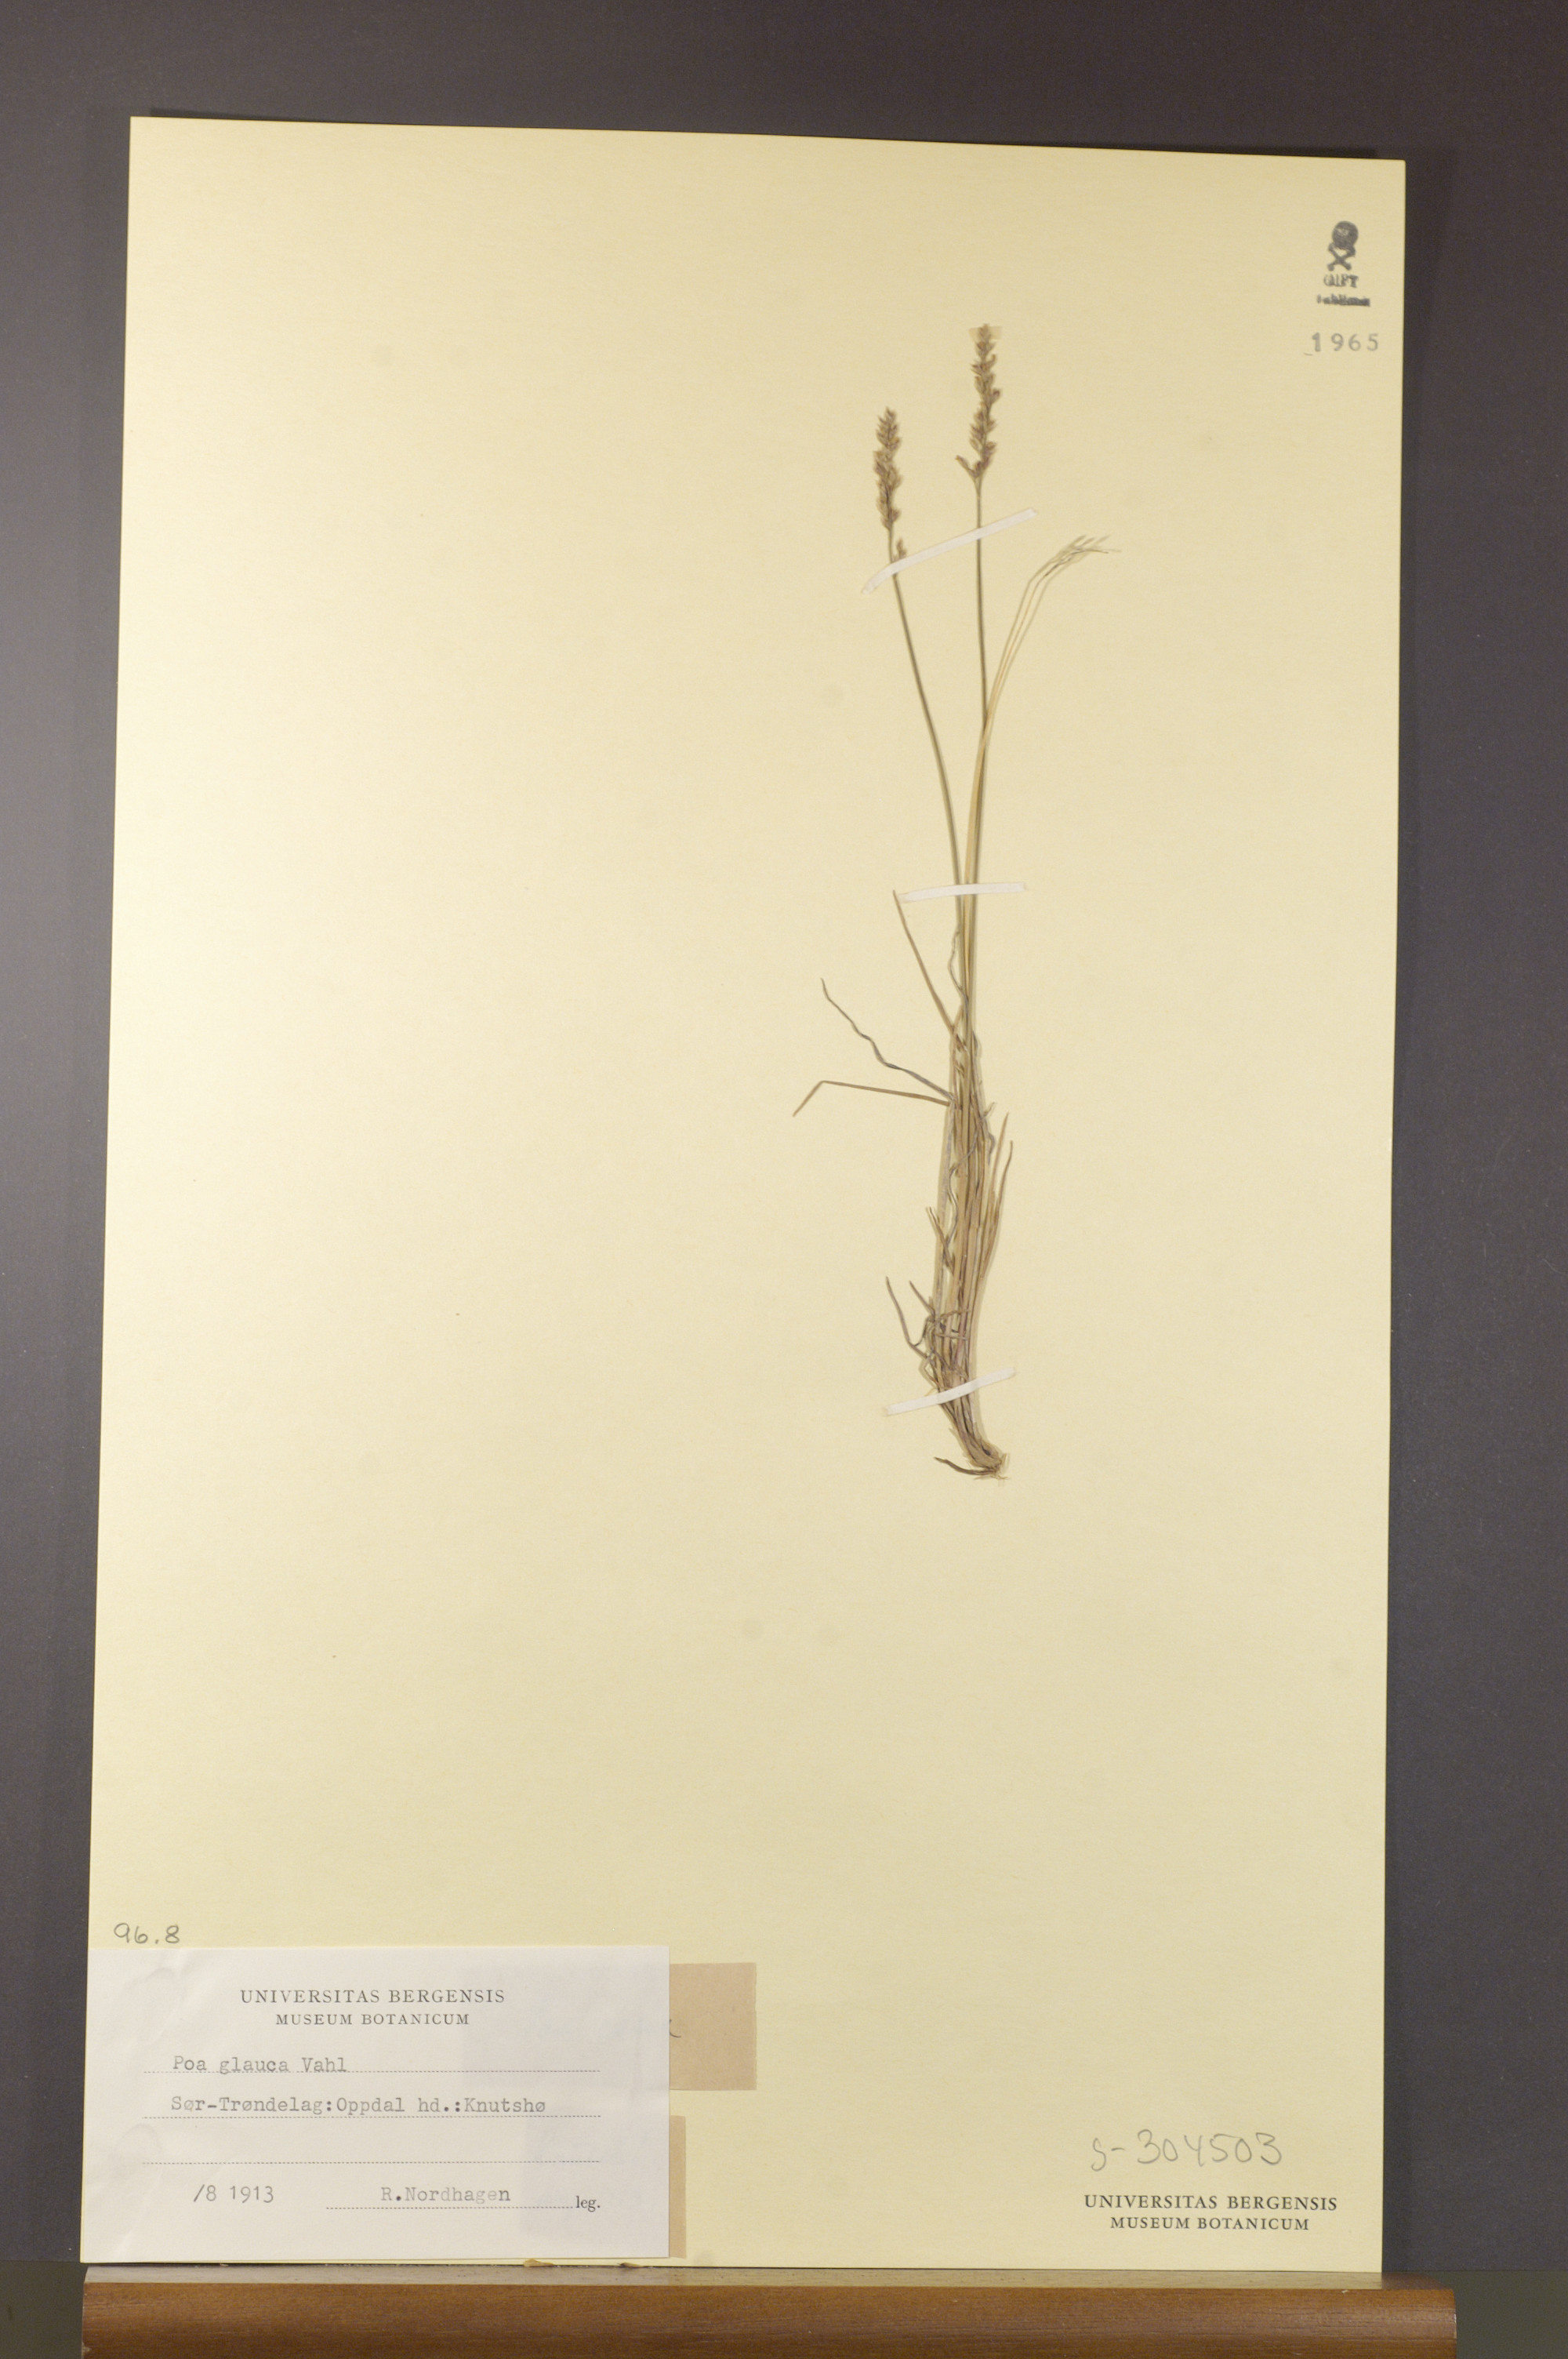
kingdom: Plantae
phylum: Tracheophyta
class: Liliopsida
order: Poales
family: Poaceae
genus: Poa
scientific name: Poa glauca
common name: Glaucous bluegrass
